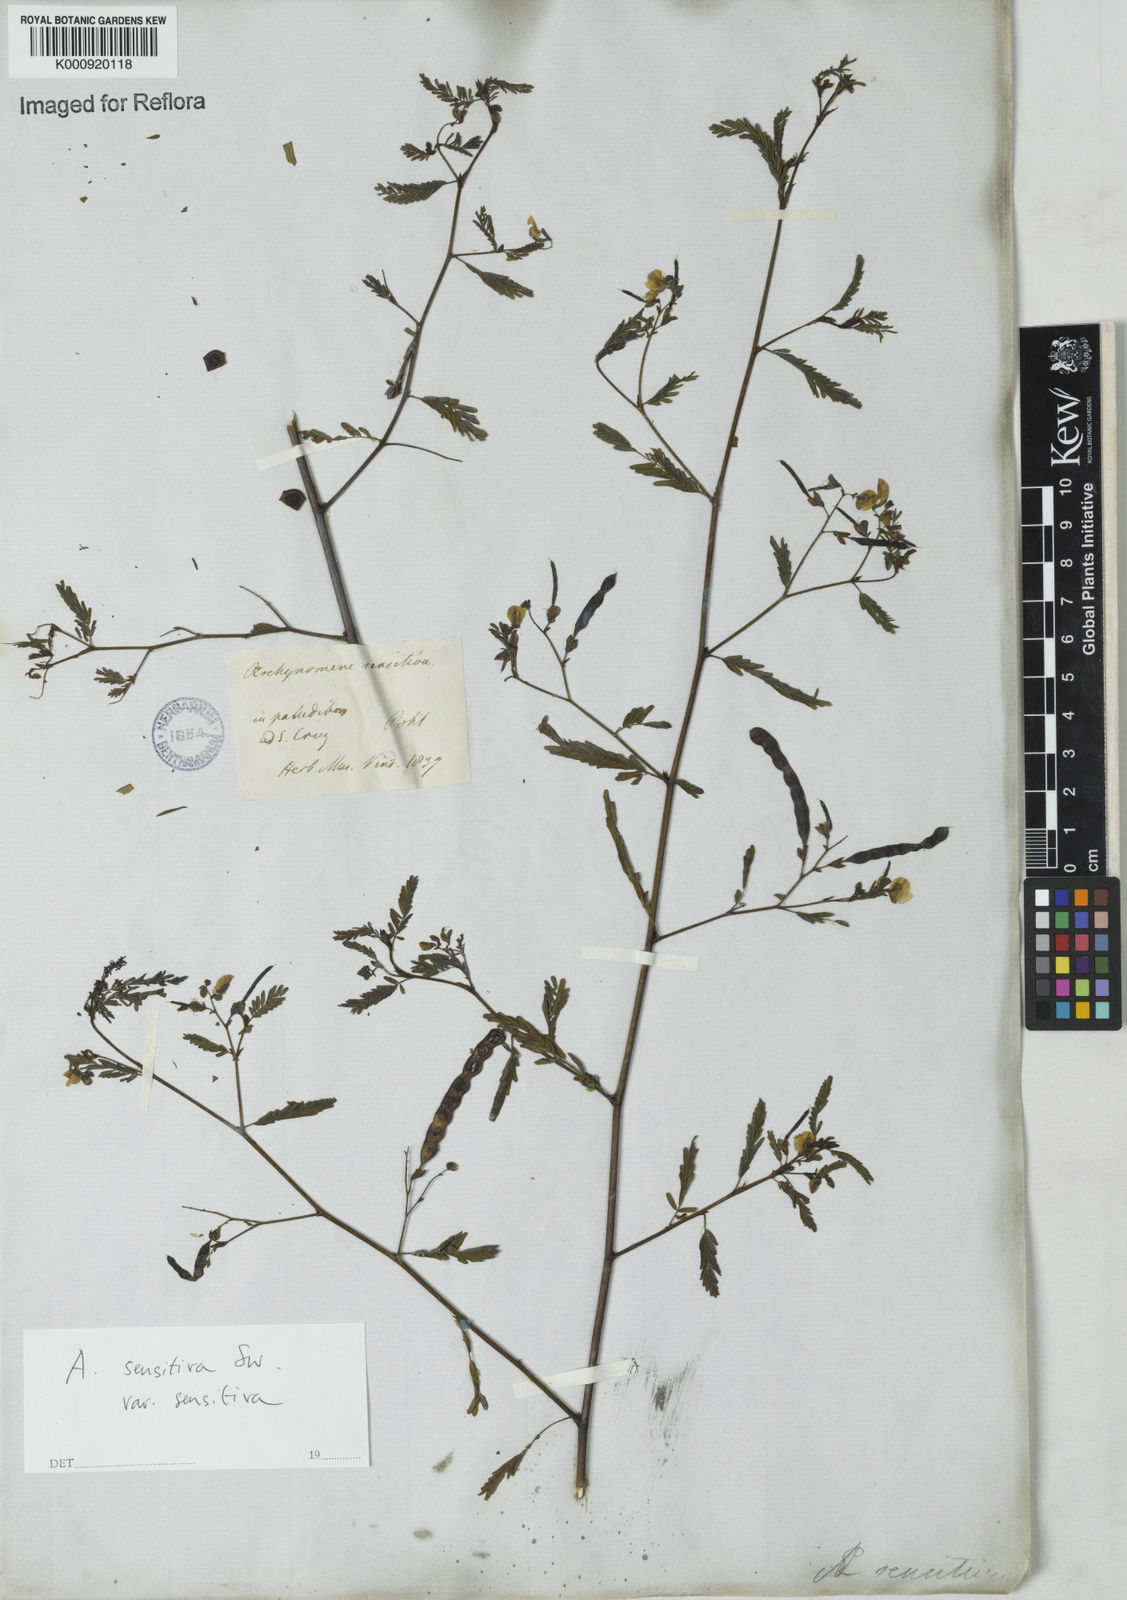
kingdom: Plantae
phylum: Tracheophyta
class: Magnoliopsida
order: Fabales
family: Fabaceae
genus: Aeschynomene
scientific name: Aeschynomene sensitiva
